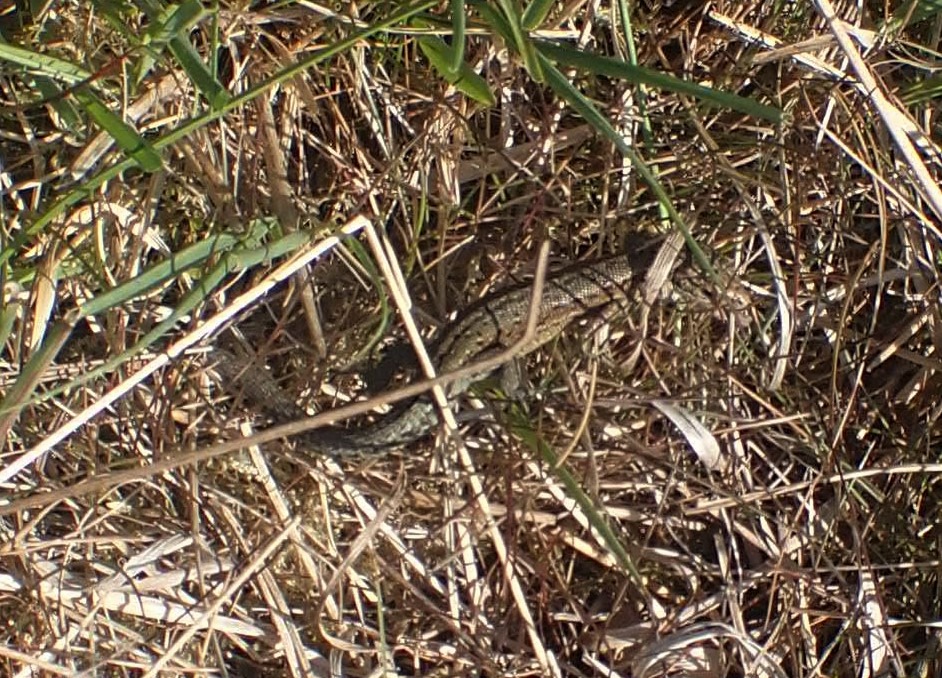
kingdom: Animalia
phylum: Chordata
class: Squamata
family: Lacertidae
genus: Zootoca
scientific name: Zootoca vivipara
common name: Skovfirben
